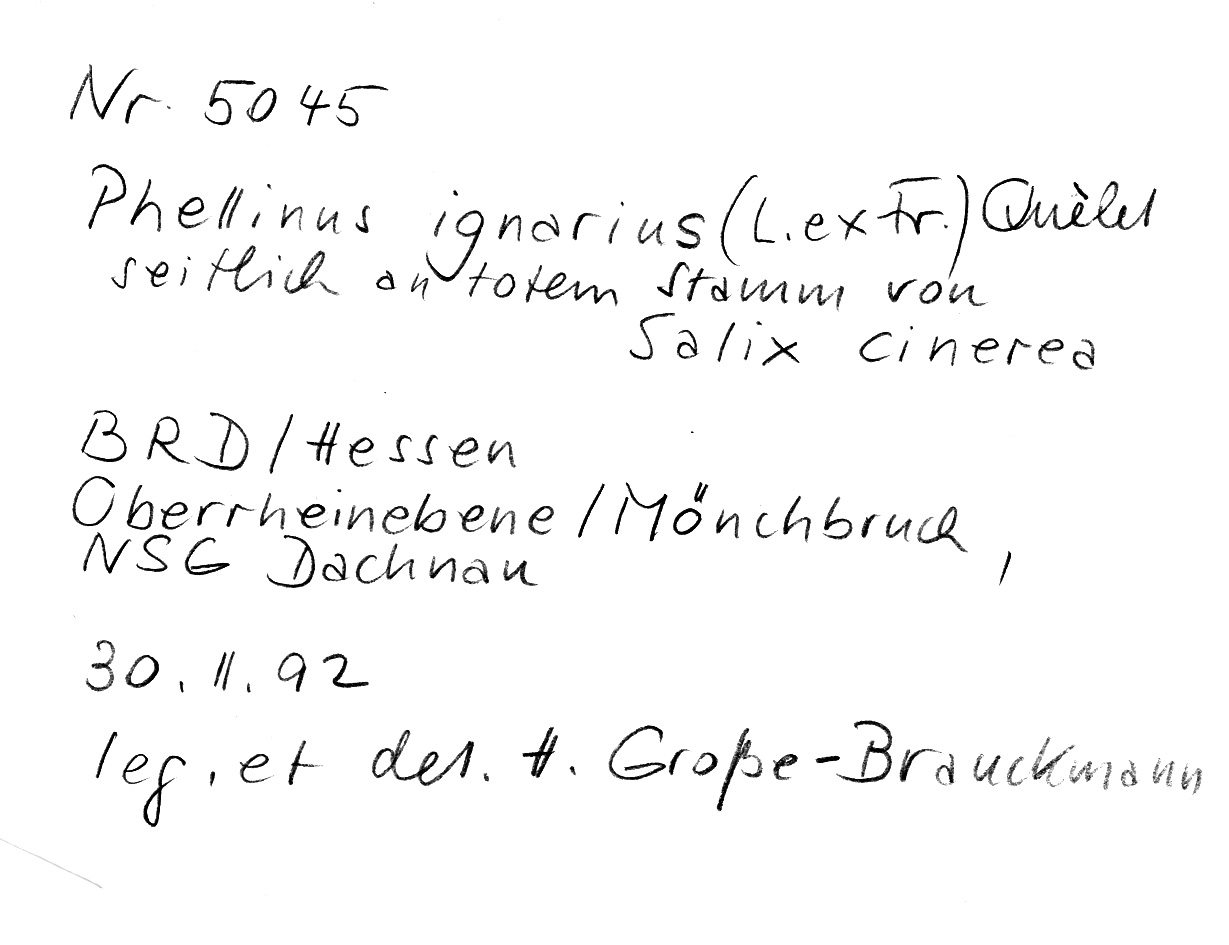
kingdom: Plantae
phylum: Tracheophyta
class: Magnoliopsida
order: Malpighiales
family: Salicaceae
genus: Salix
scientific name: Salix cinerea
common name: Common sallow
